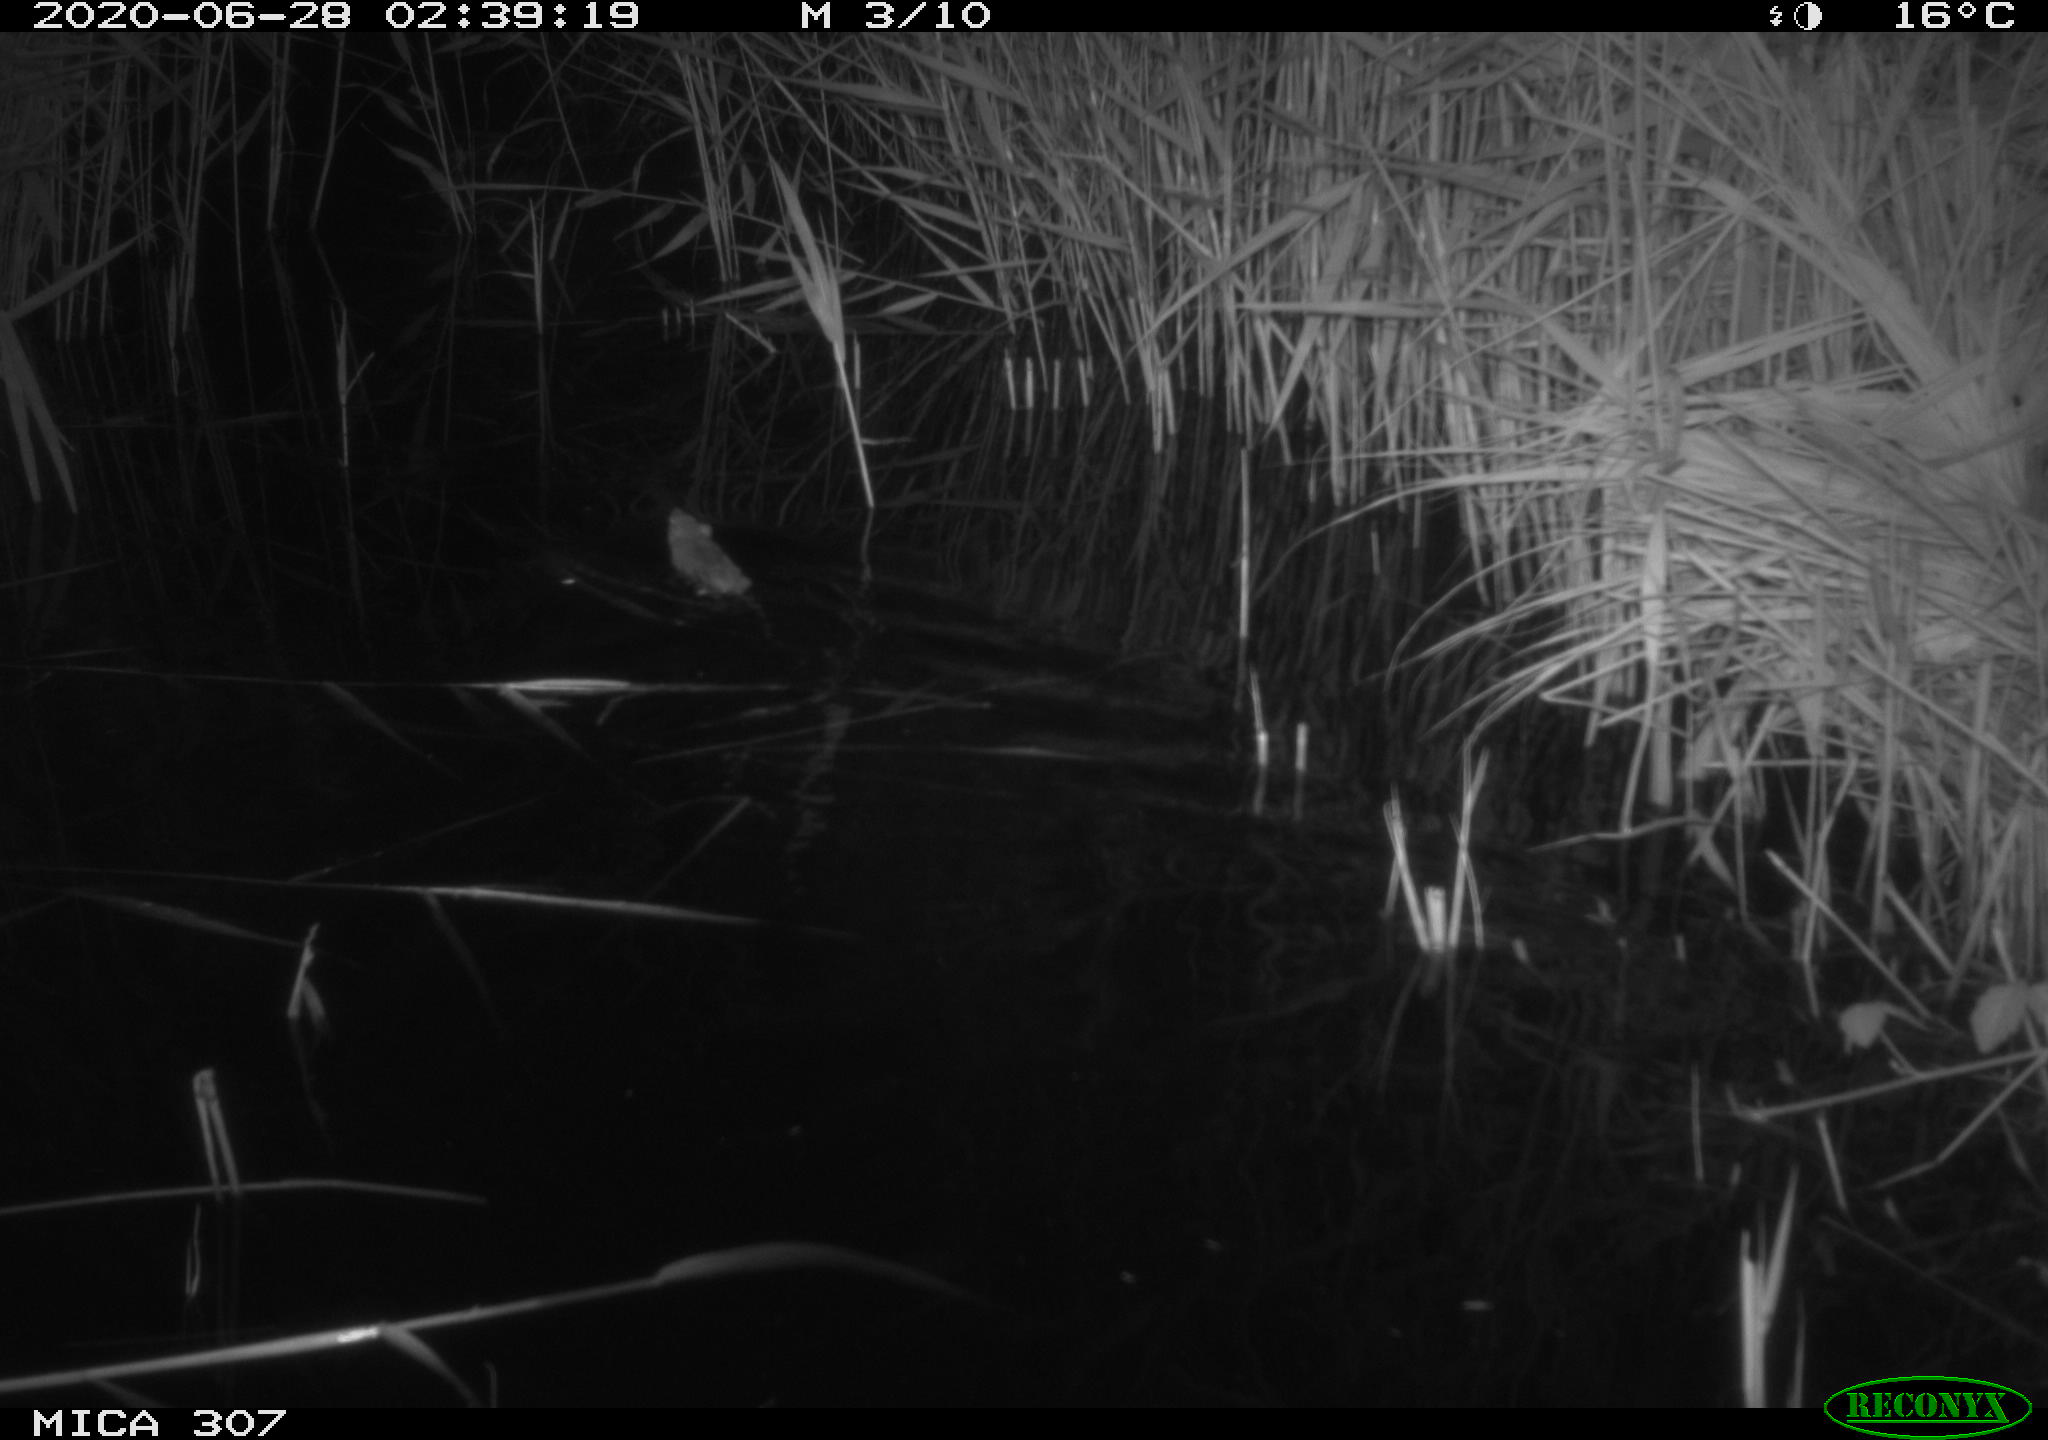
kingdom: Animalia
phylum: Chordata
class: Mammalia
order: Rodentia
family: Muridae
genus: Rattus
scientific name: Rattus norvegicus
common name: Brown rat
